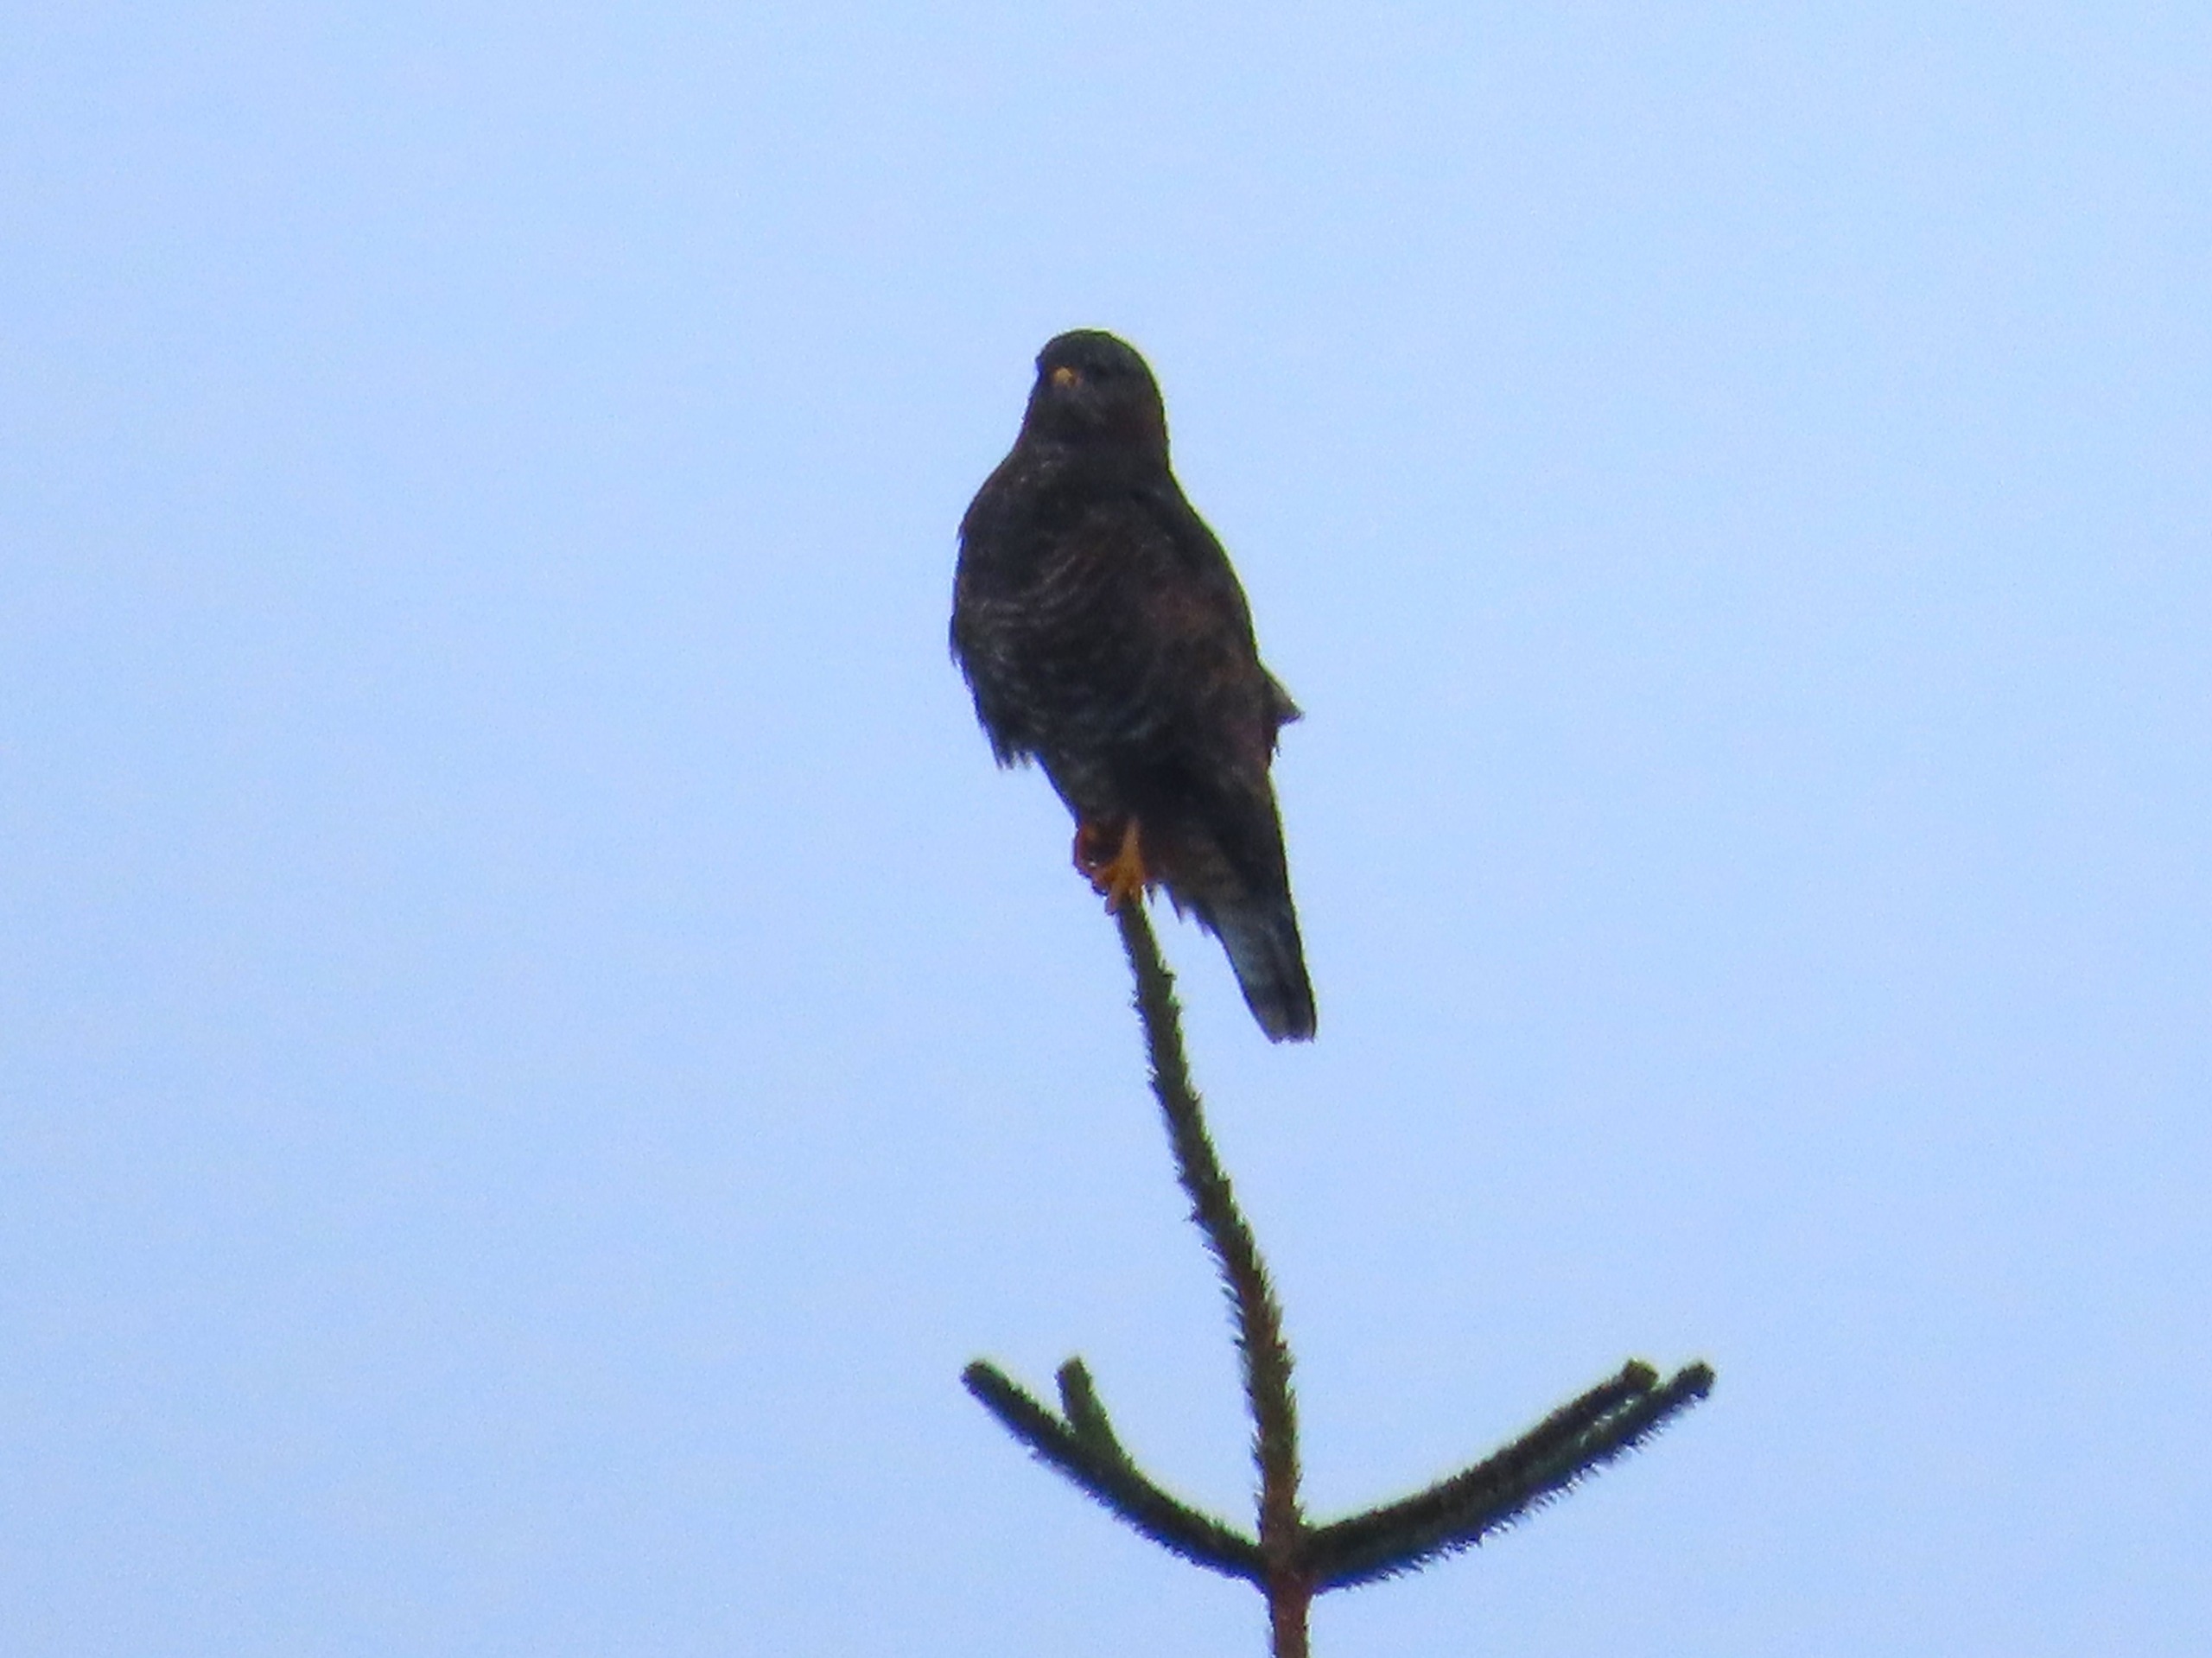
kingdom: Animalia
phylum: Chordata
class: Aves
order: Accipitriformes
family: Accipitridae
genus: Buteo
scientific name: Buteo buteo
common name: Musvåge
